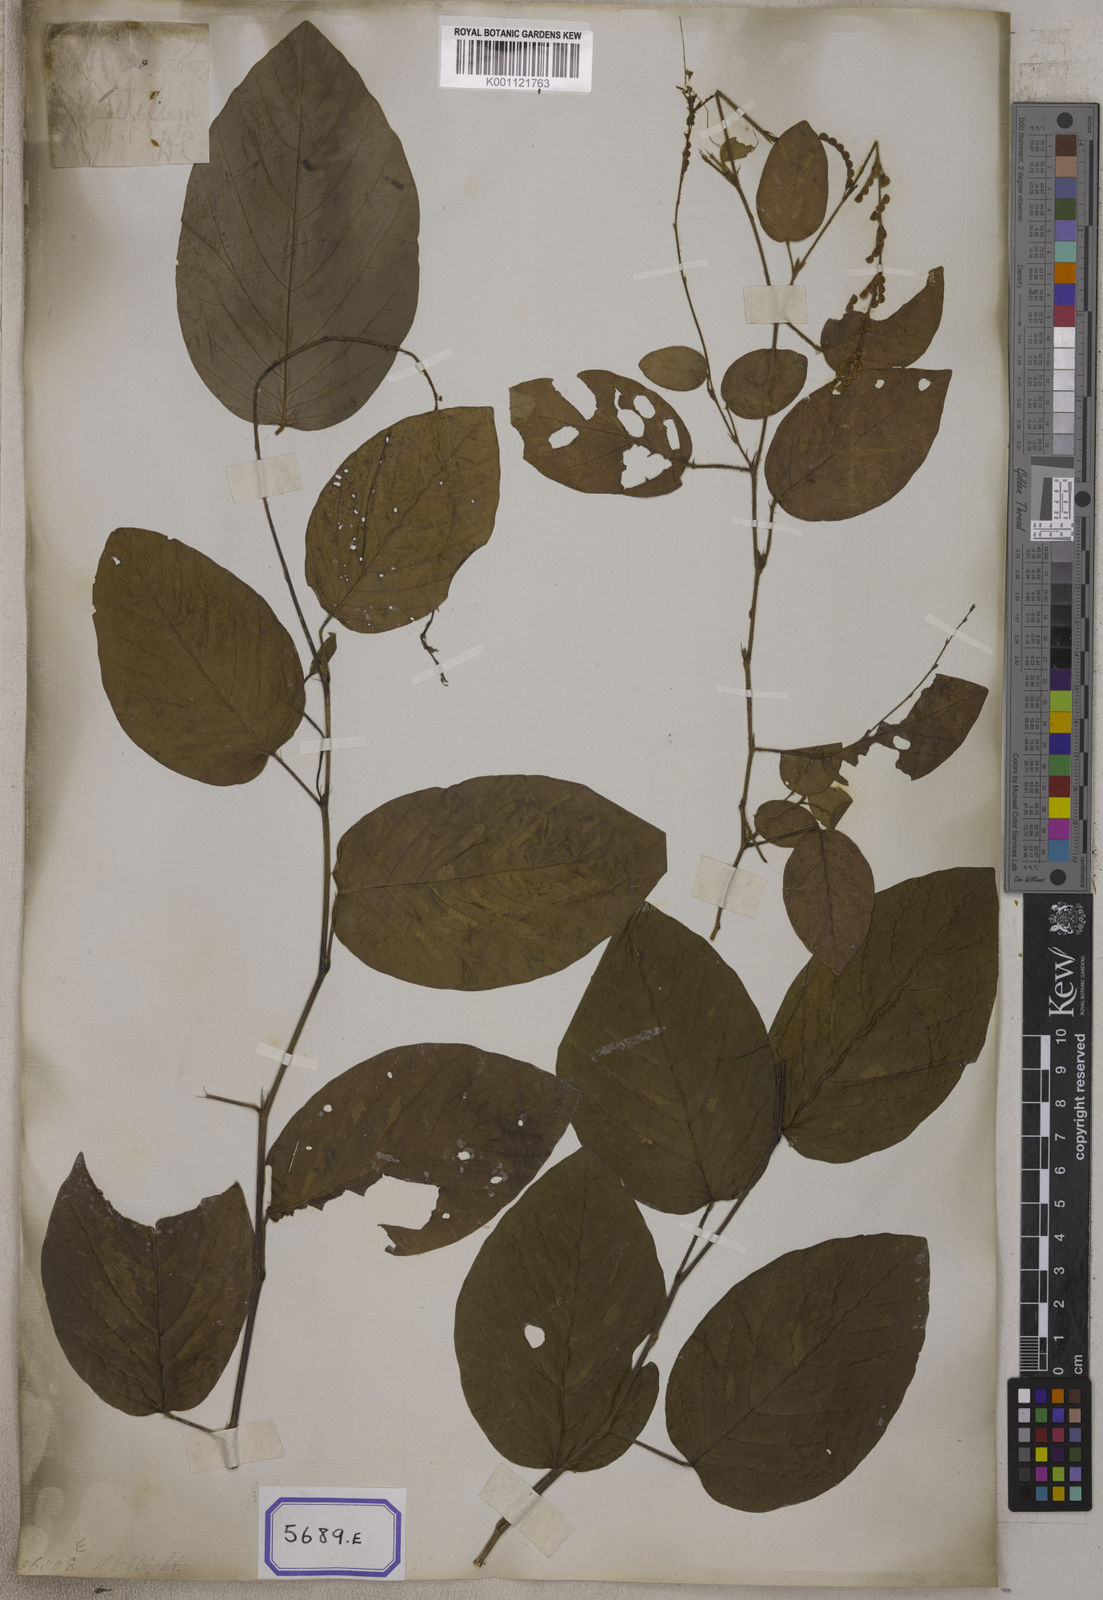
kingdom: Plantae
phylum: Tracheophyta
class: Magnoliopsida
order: Fabales
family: Fabaceae
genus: Pleurolobus
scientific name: Pleurolobus gangeticus
